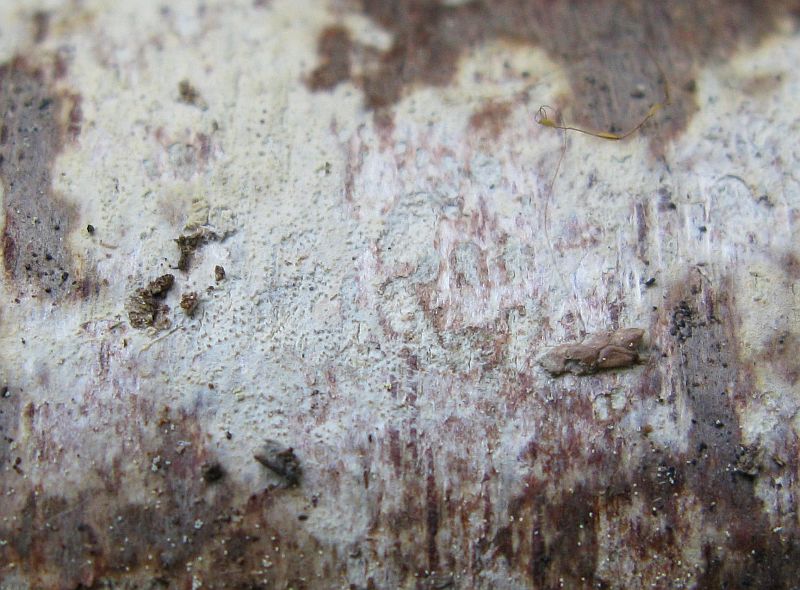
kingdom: Fungi
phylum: Basidiomycota
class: Agaricomycetes
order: Hymenochaetales
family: Rickenellaceae
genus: Resinicium
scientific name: Resinicium bicolor
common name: almindelig vokstand
